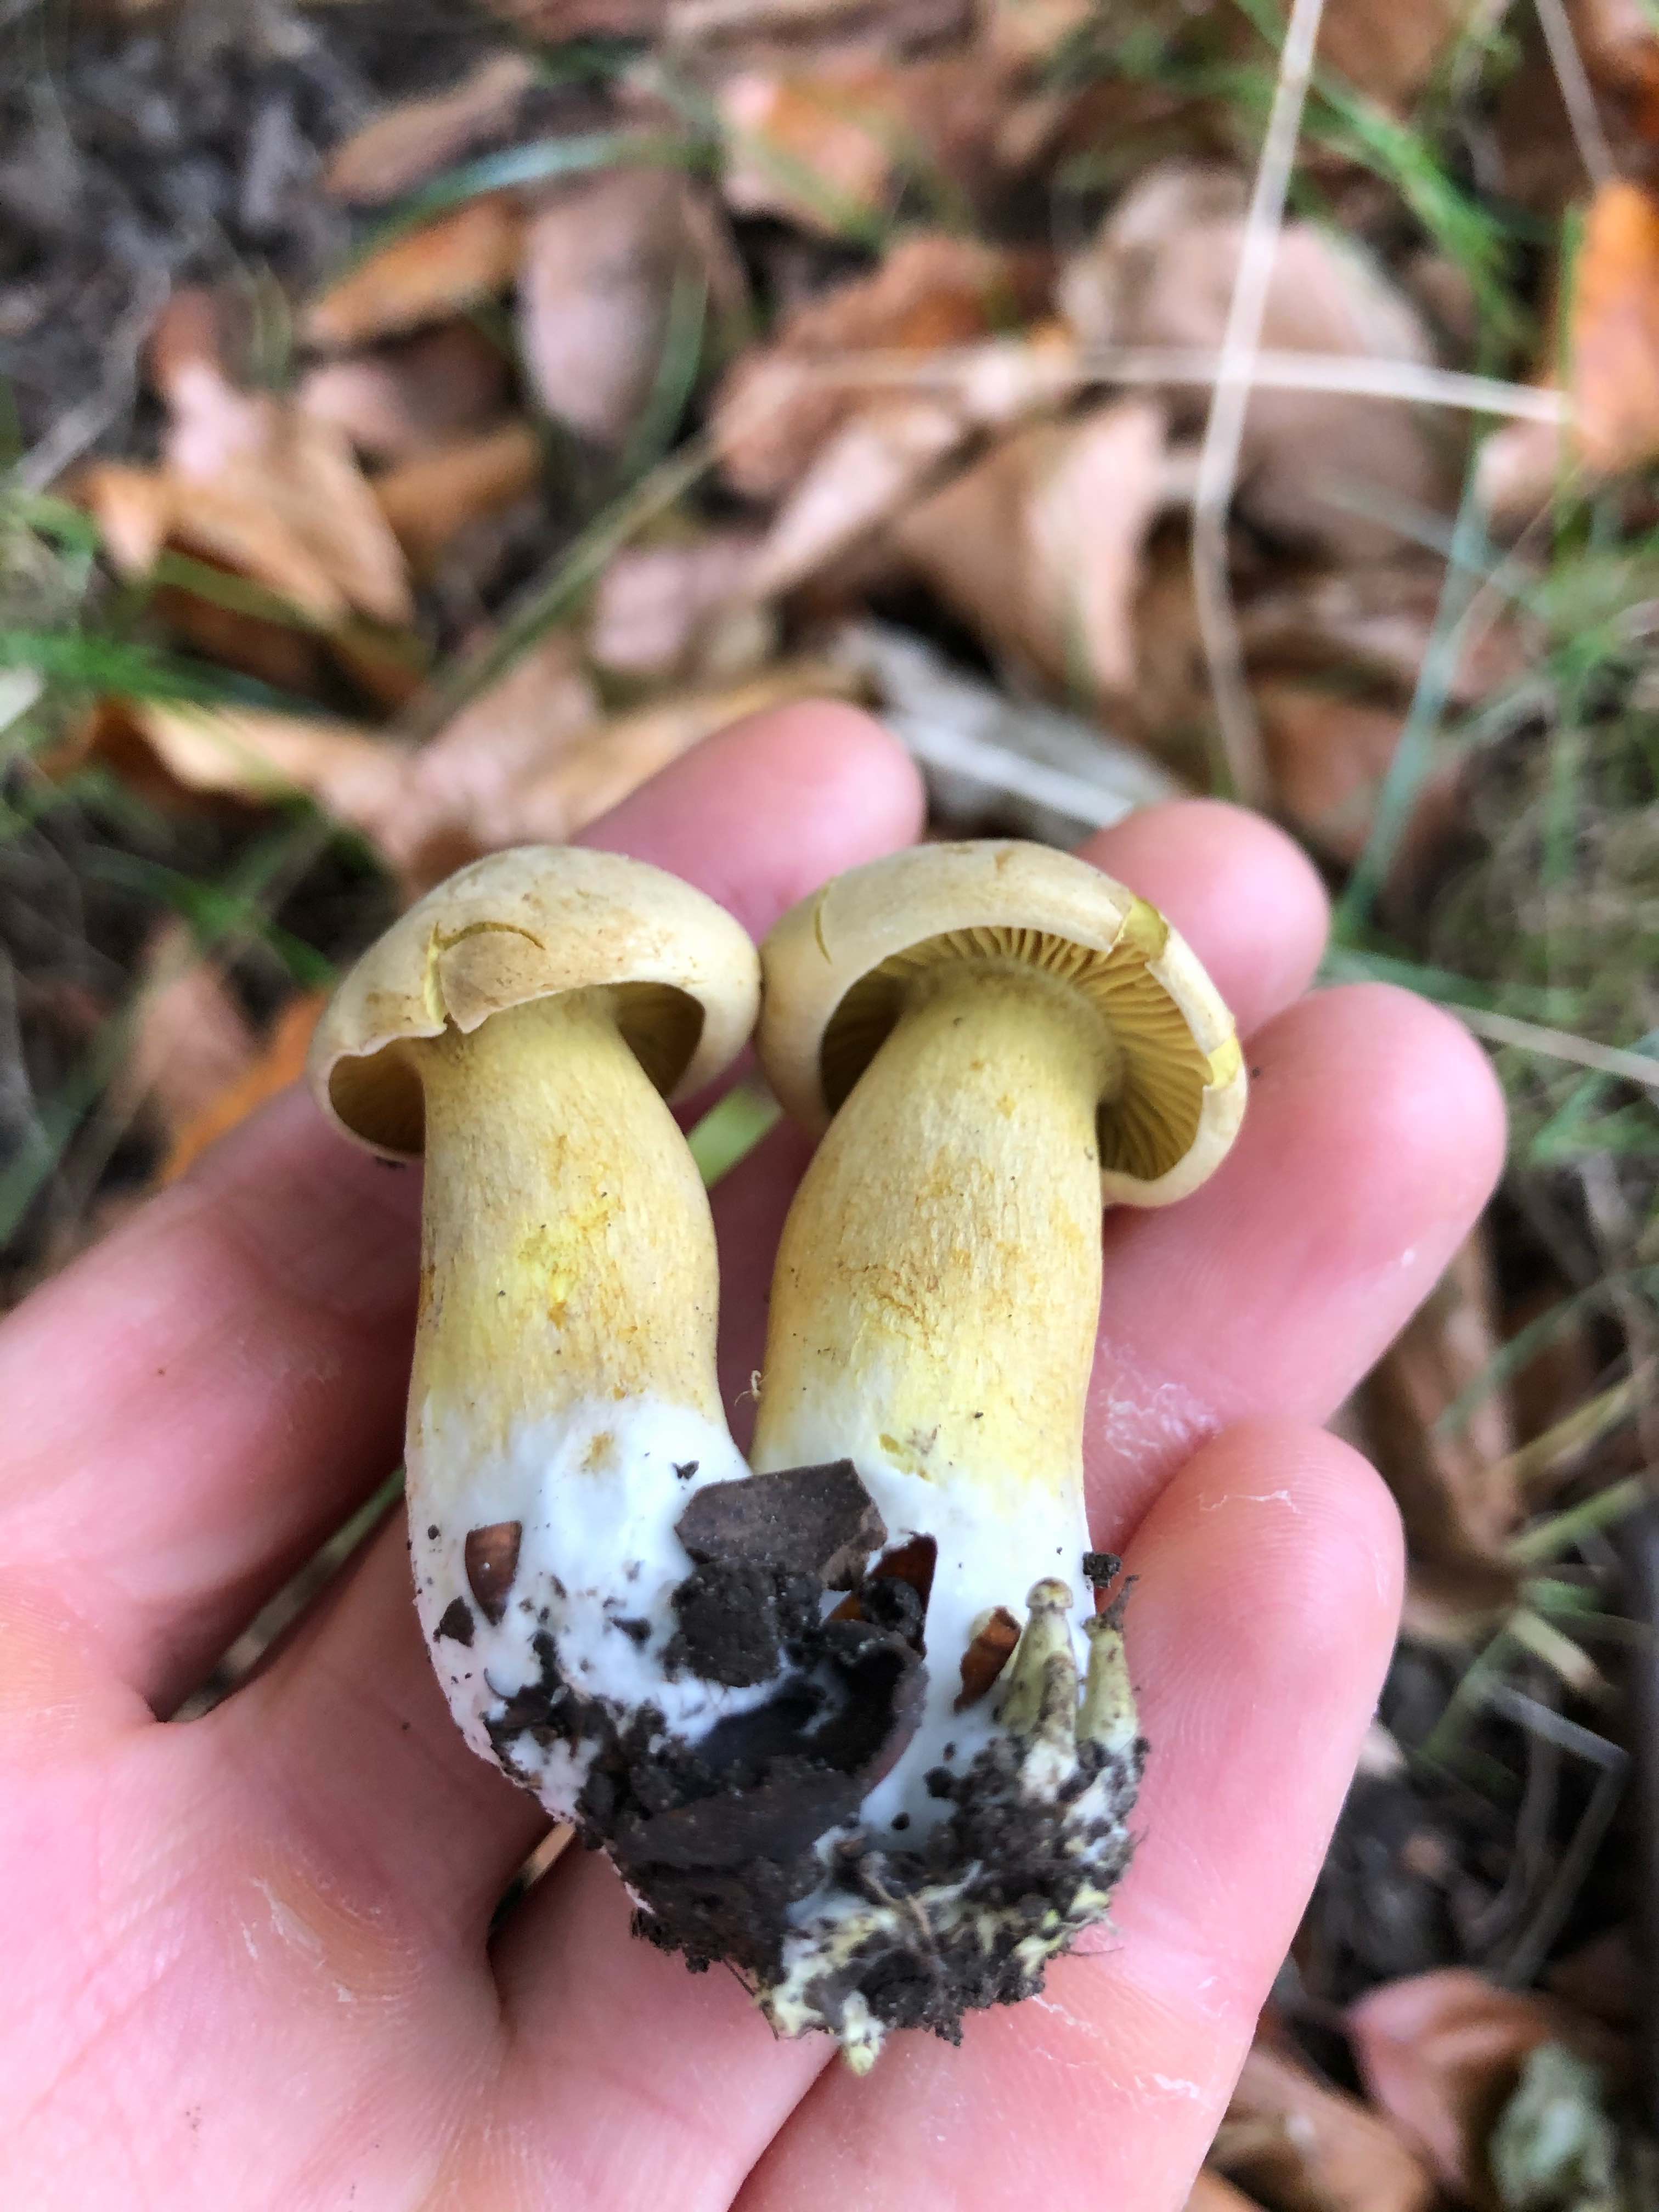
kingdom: Fungi
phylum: Basidiomycota
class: Agaricomycetes
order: Agaricales
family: Tricholomataceae
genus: Tricholoma
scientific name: Tricholoma sulphureum
